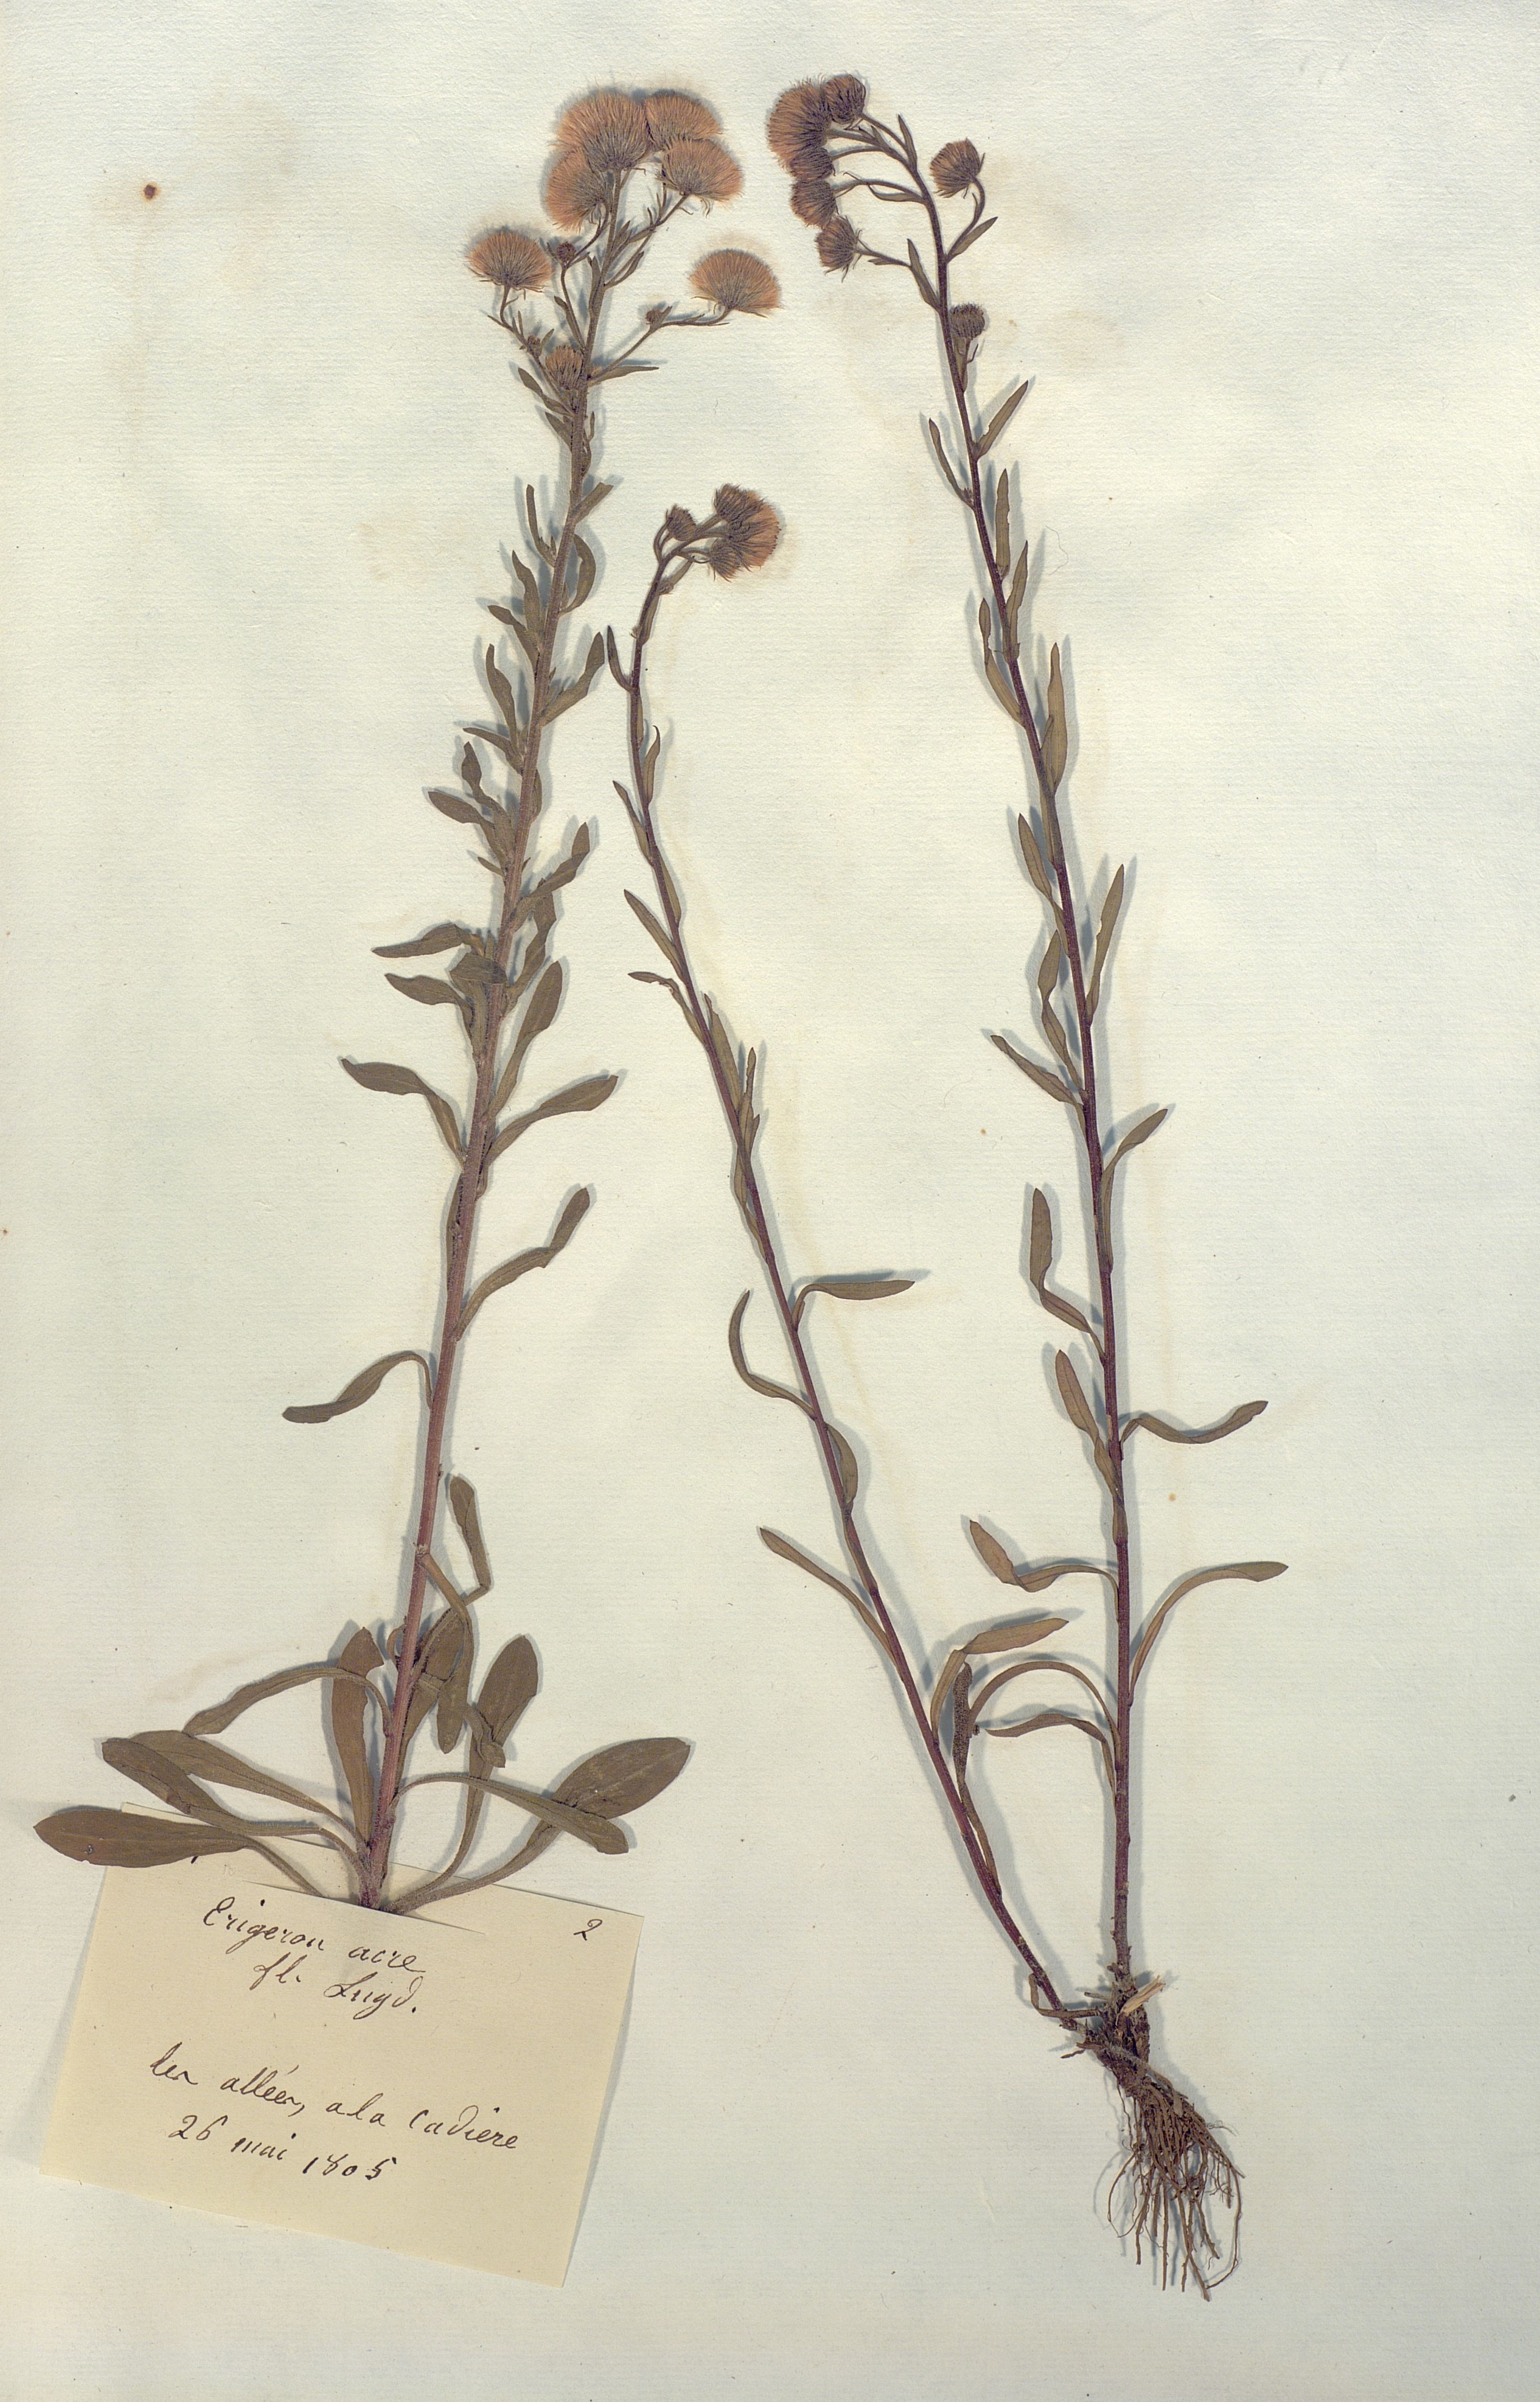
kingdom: Plantae
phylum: Tracheophyta
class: Magnoliopsida
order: Asterales
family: Asteraceae
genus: Erigeron
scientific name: Erigeron acris
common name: Blue fleabane
